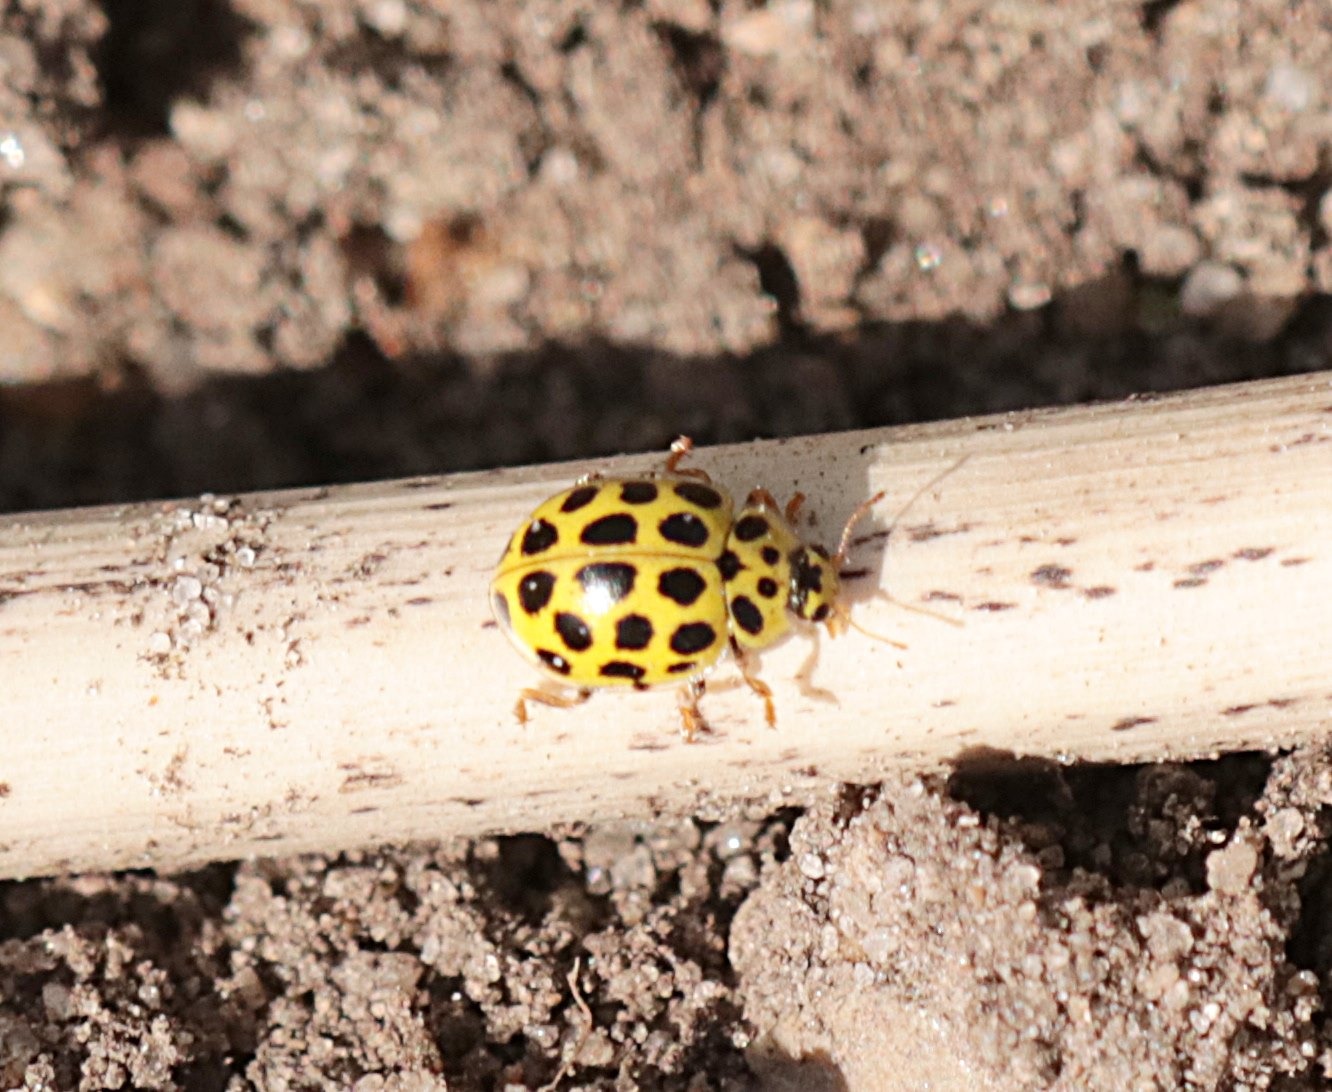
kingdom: Animalia
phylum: Arthropoda
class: Insecta
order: Coleoptera
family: Coccinellidae
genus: Psyllobora
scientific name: Psyllobora vigintiduopunctata
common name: Toogtyveplettet mariehøne
